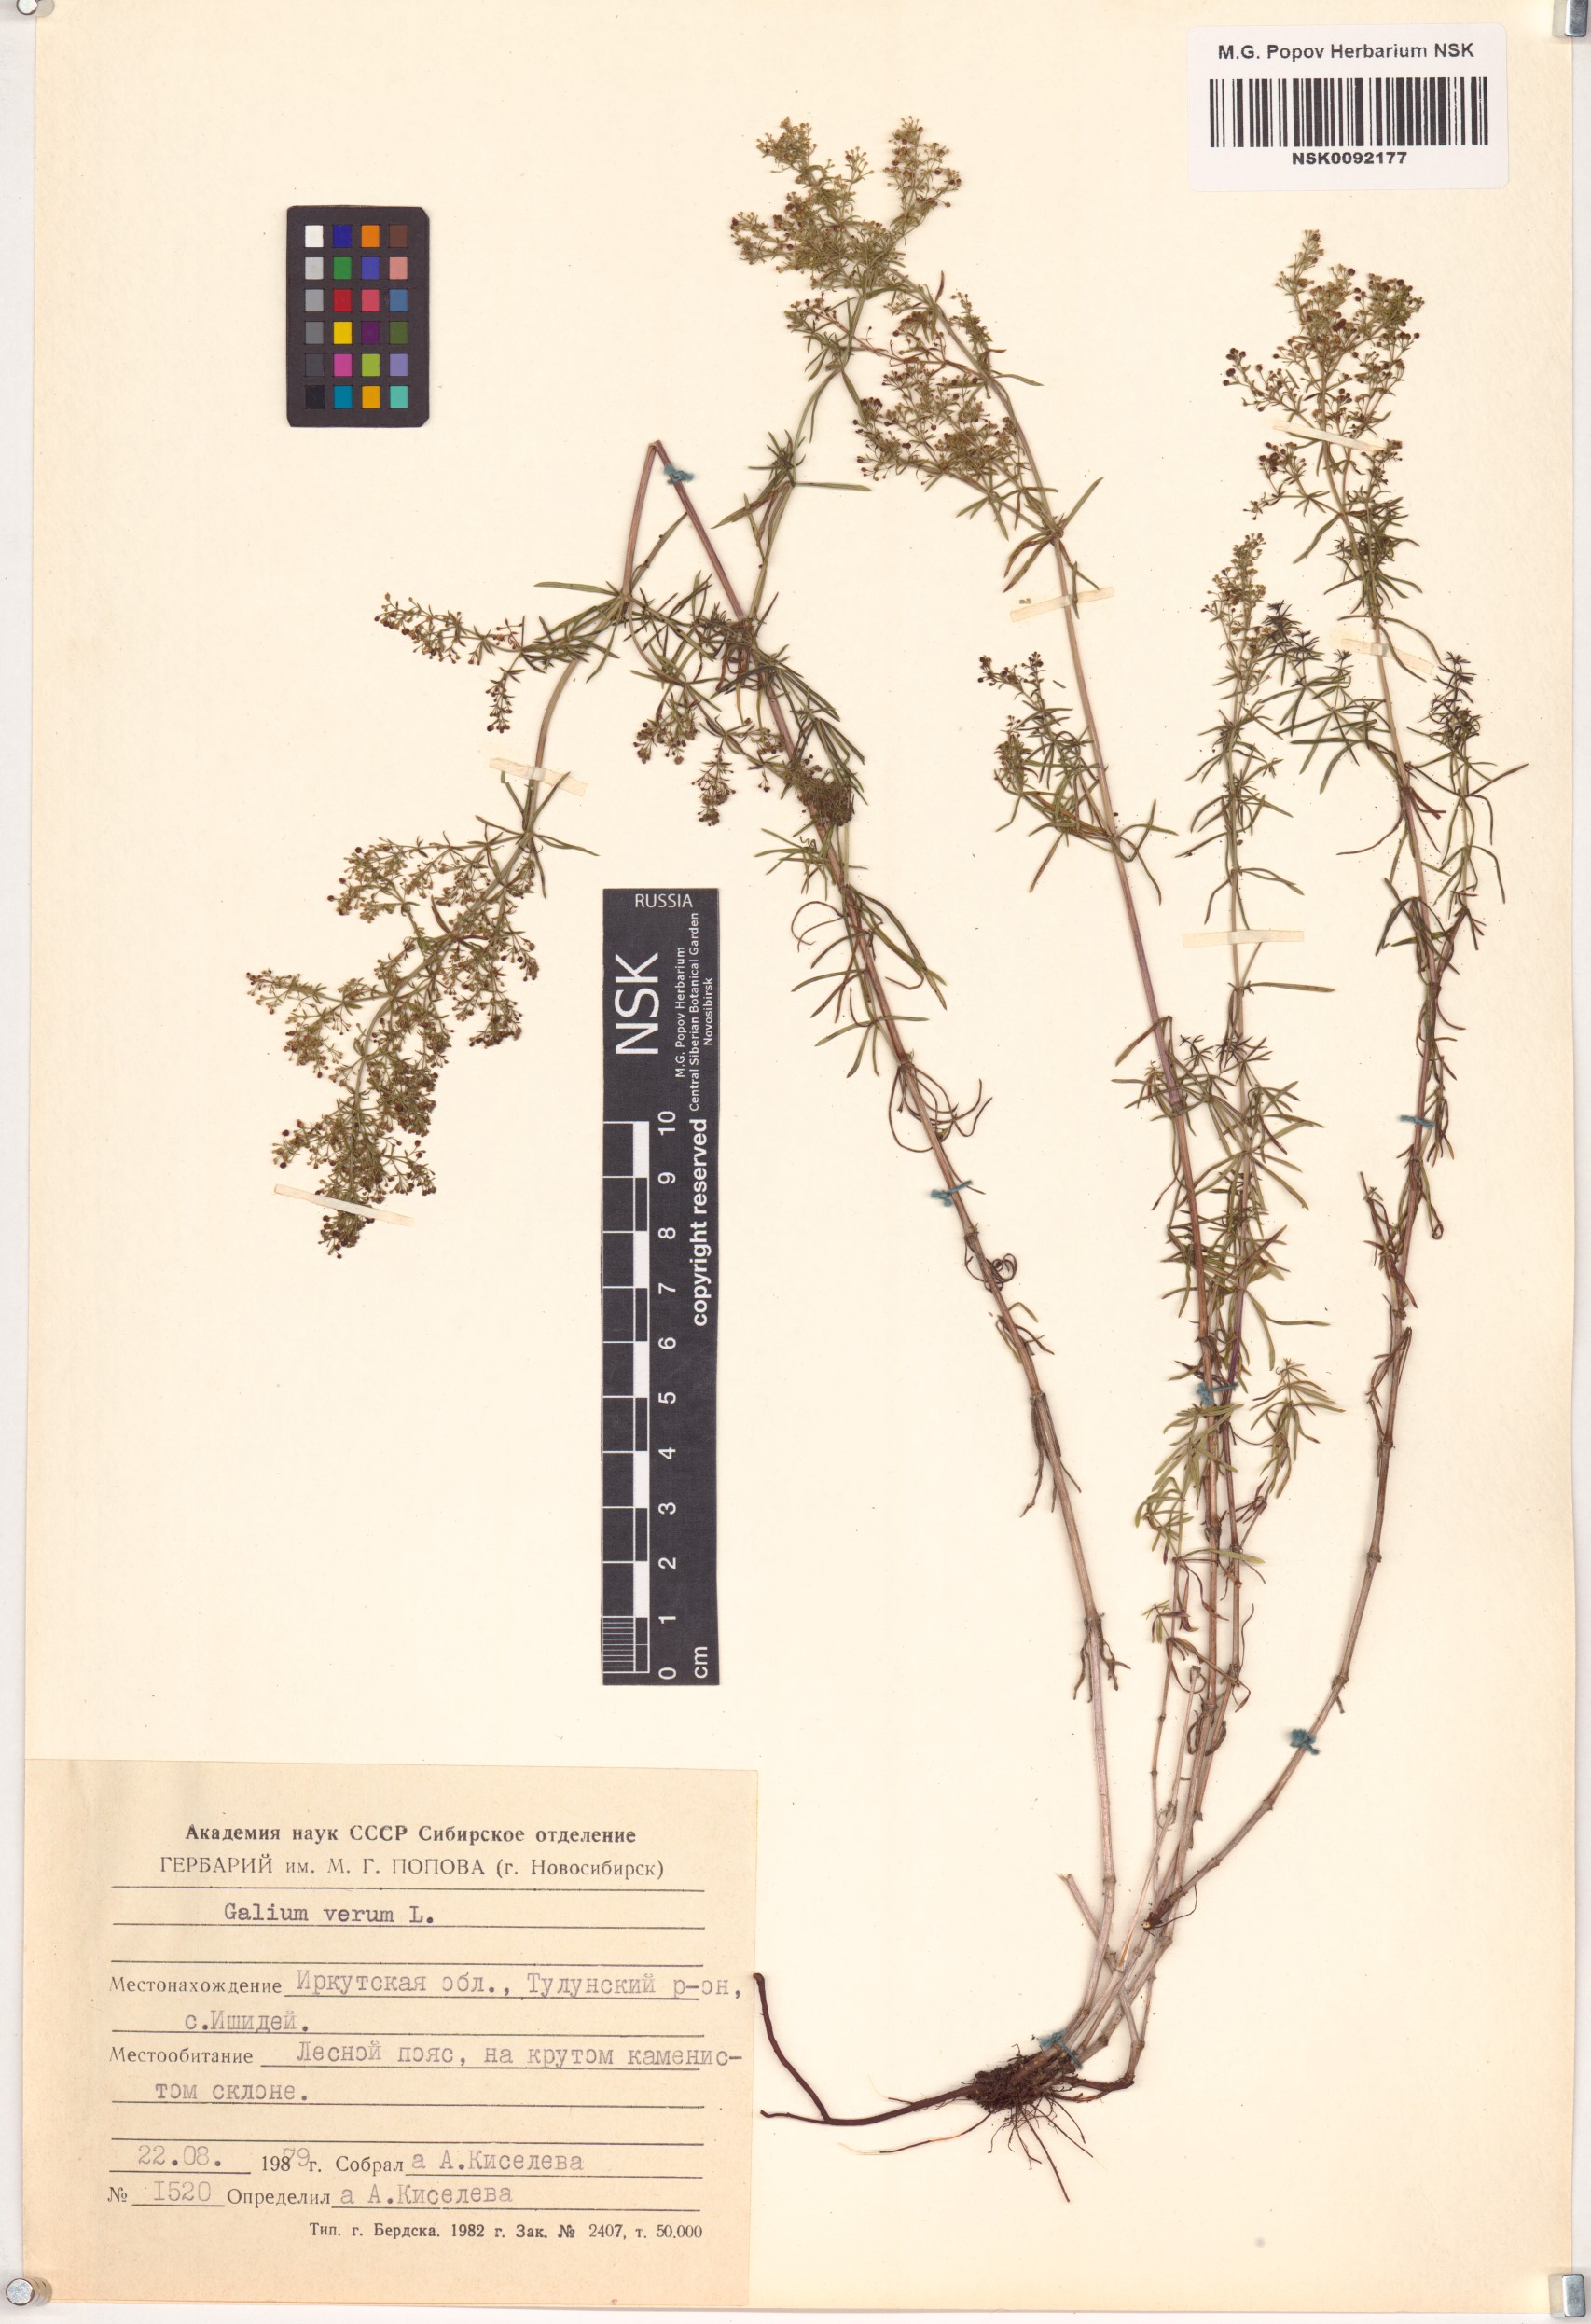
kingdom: Plantae
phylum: Tracheophyta
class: Magnoliopsida
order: Gentianales
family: Rubiaceae
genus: Galium
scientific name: Galium verum
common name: Lady's bedstraw
